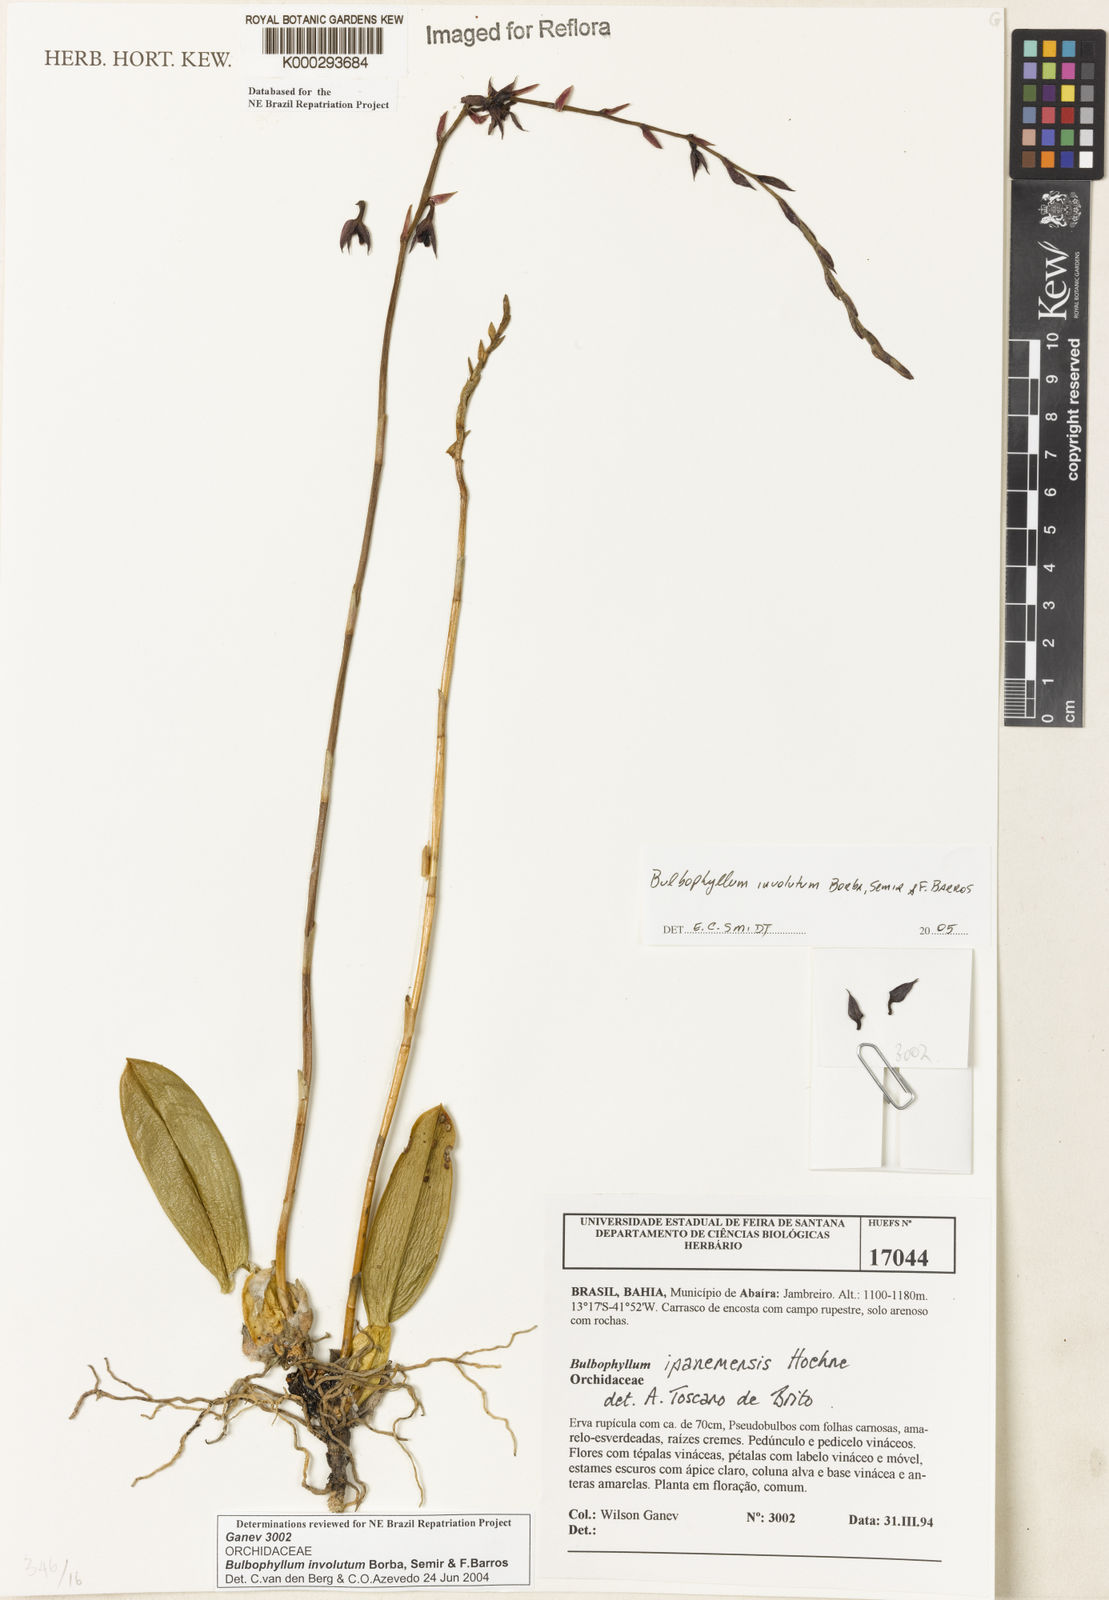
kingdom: Plantae
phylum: Tracheophyta
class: Liliopsida
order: Asparagales
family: Orchidaceae
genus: Bulbophyllum
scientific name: Bulbophyllum involutum
